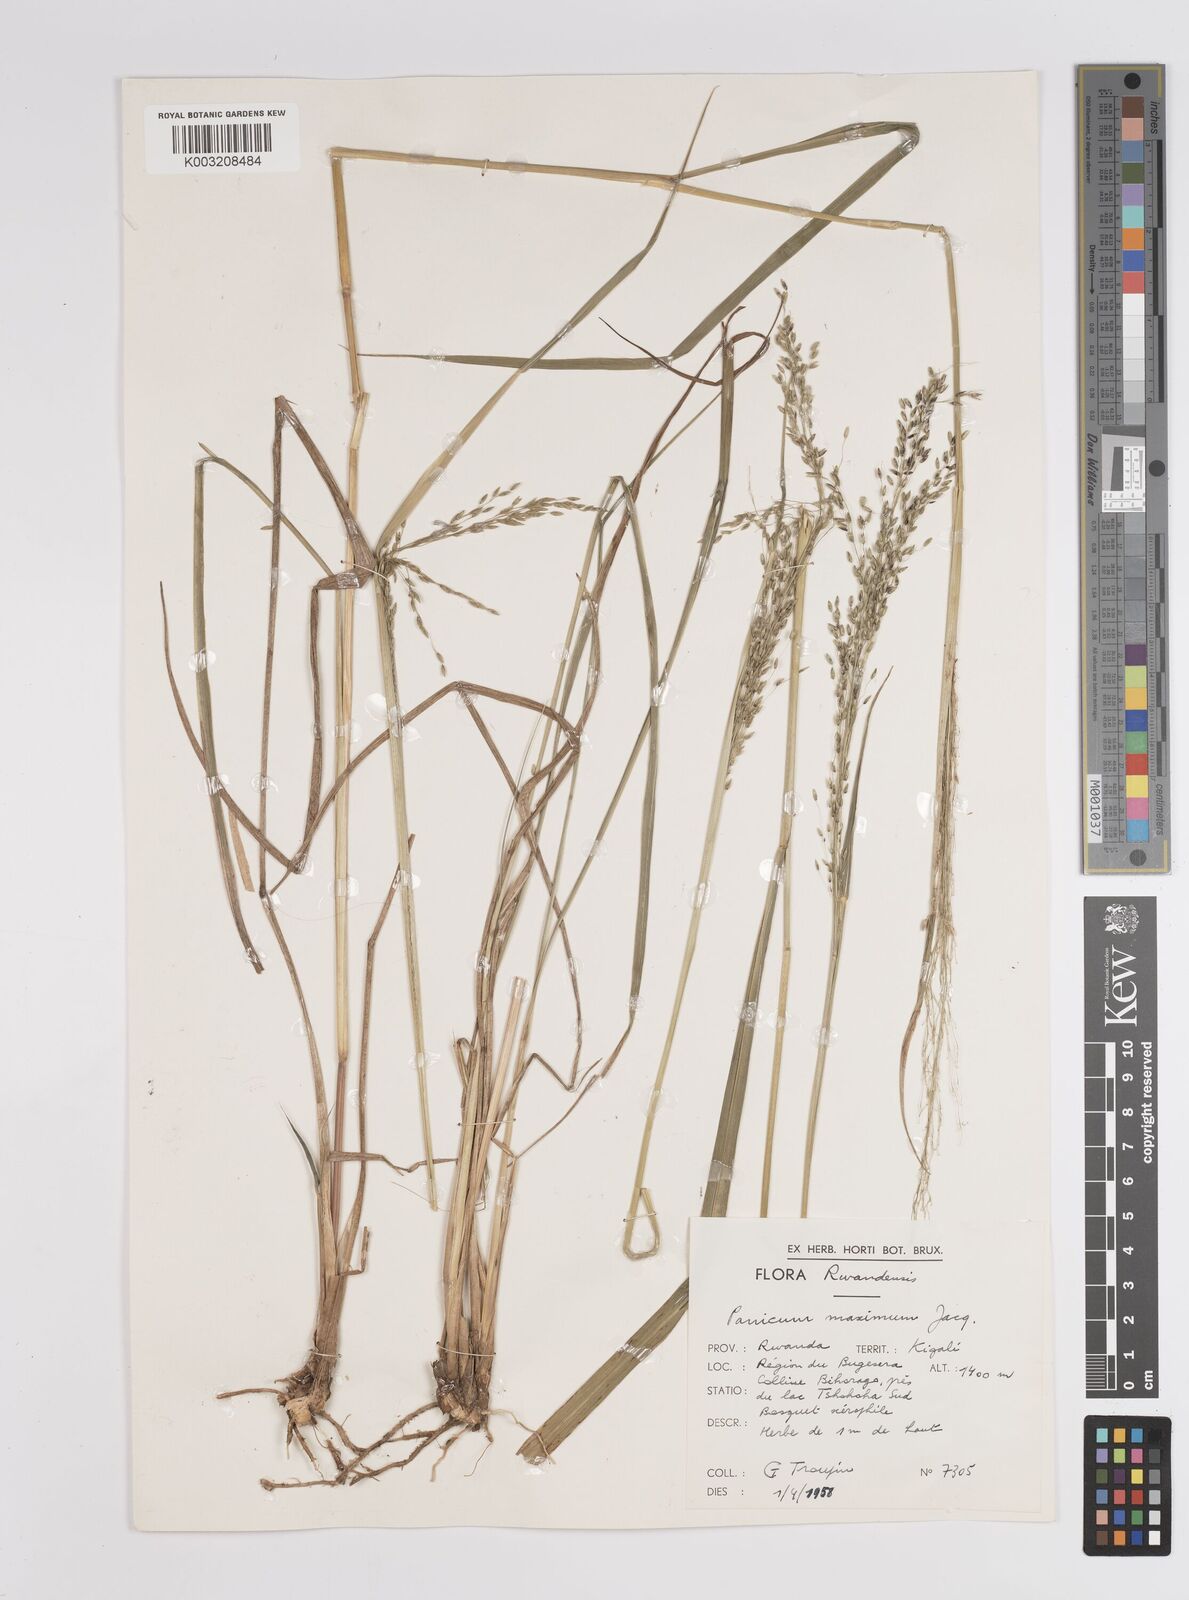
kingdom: Plantae
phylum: Tracheophyta
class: Liliopsida
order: Poales
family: Poaceae
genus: Megathyrsus
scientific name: Megathyrsus maximus
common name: Guineagrass
